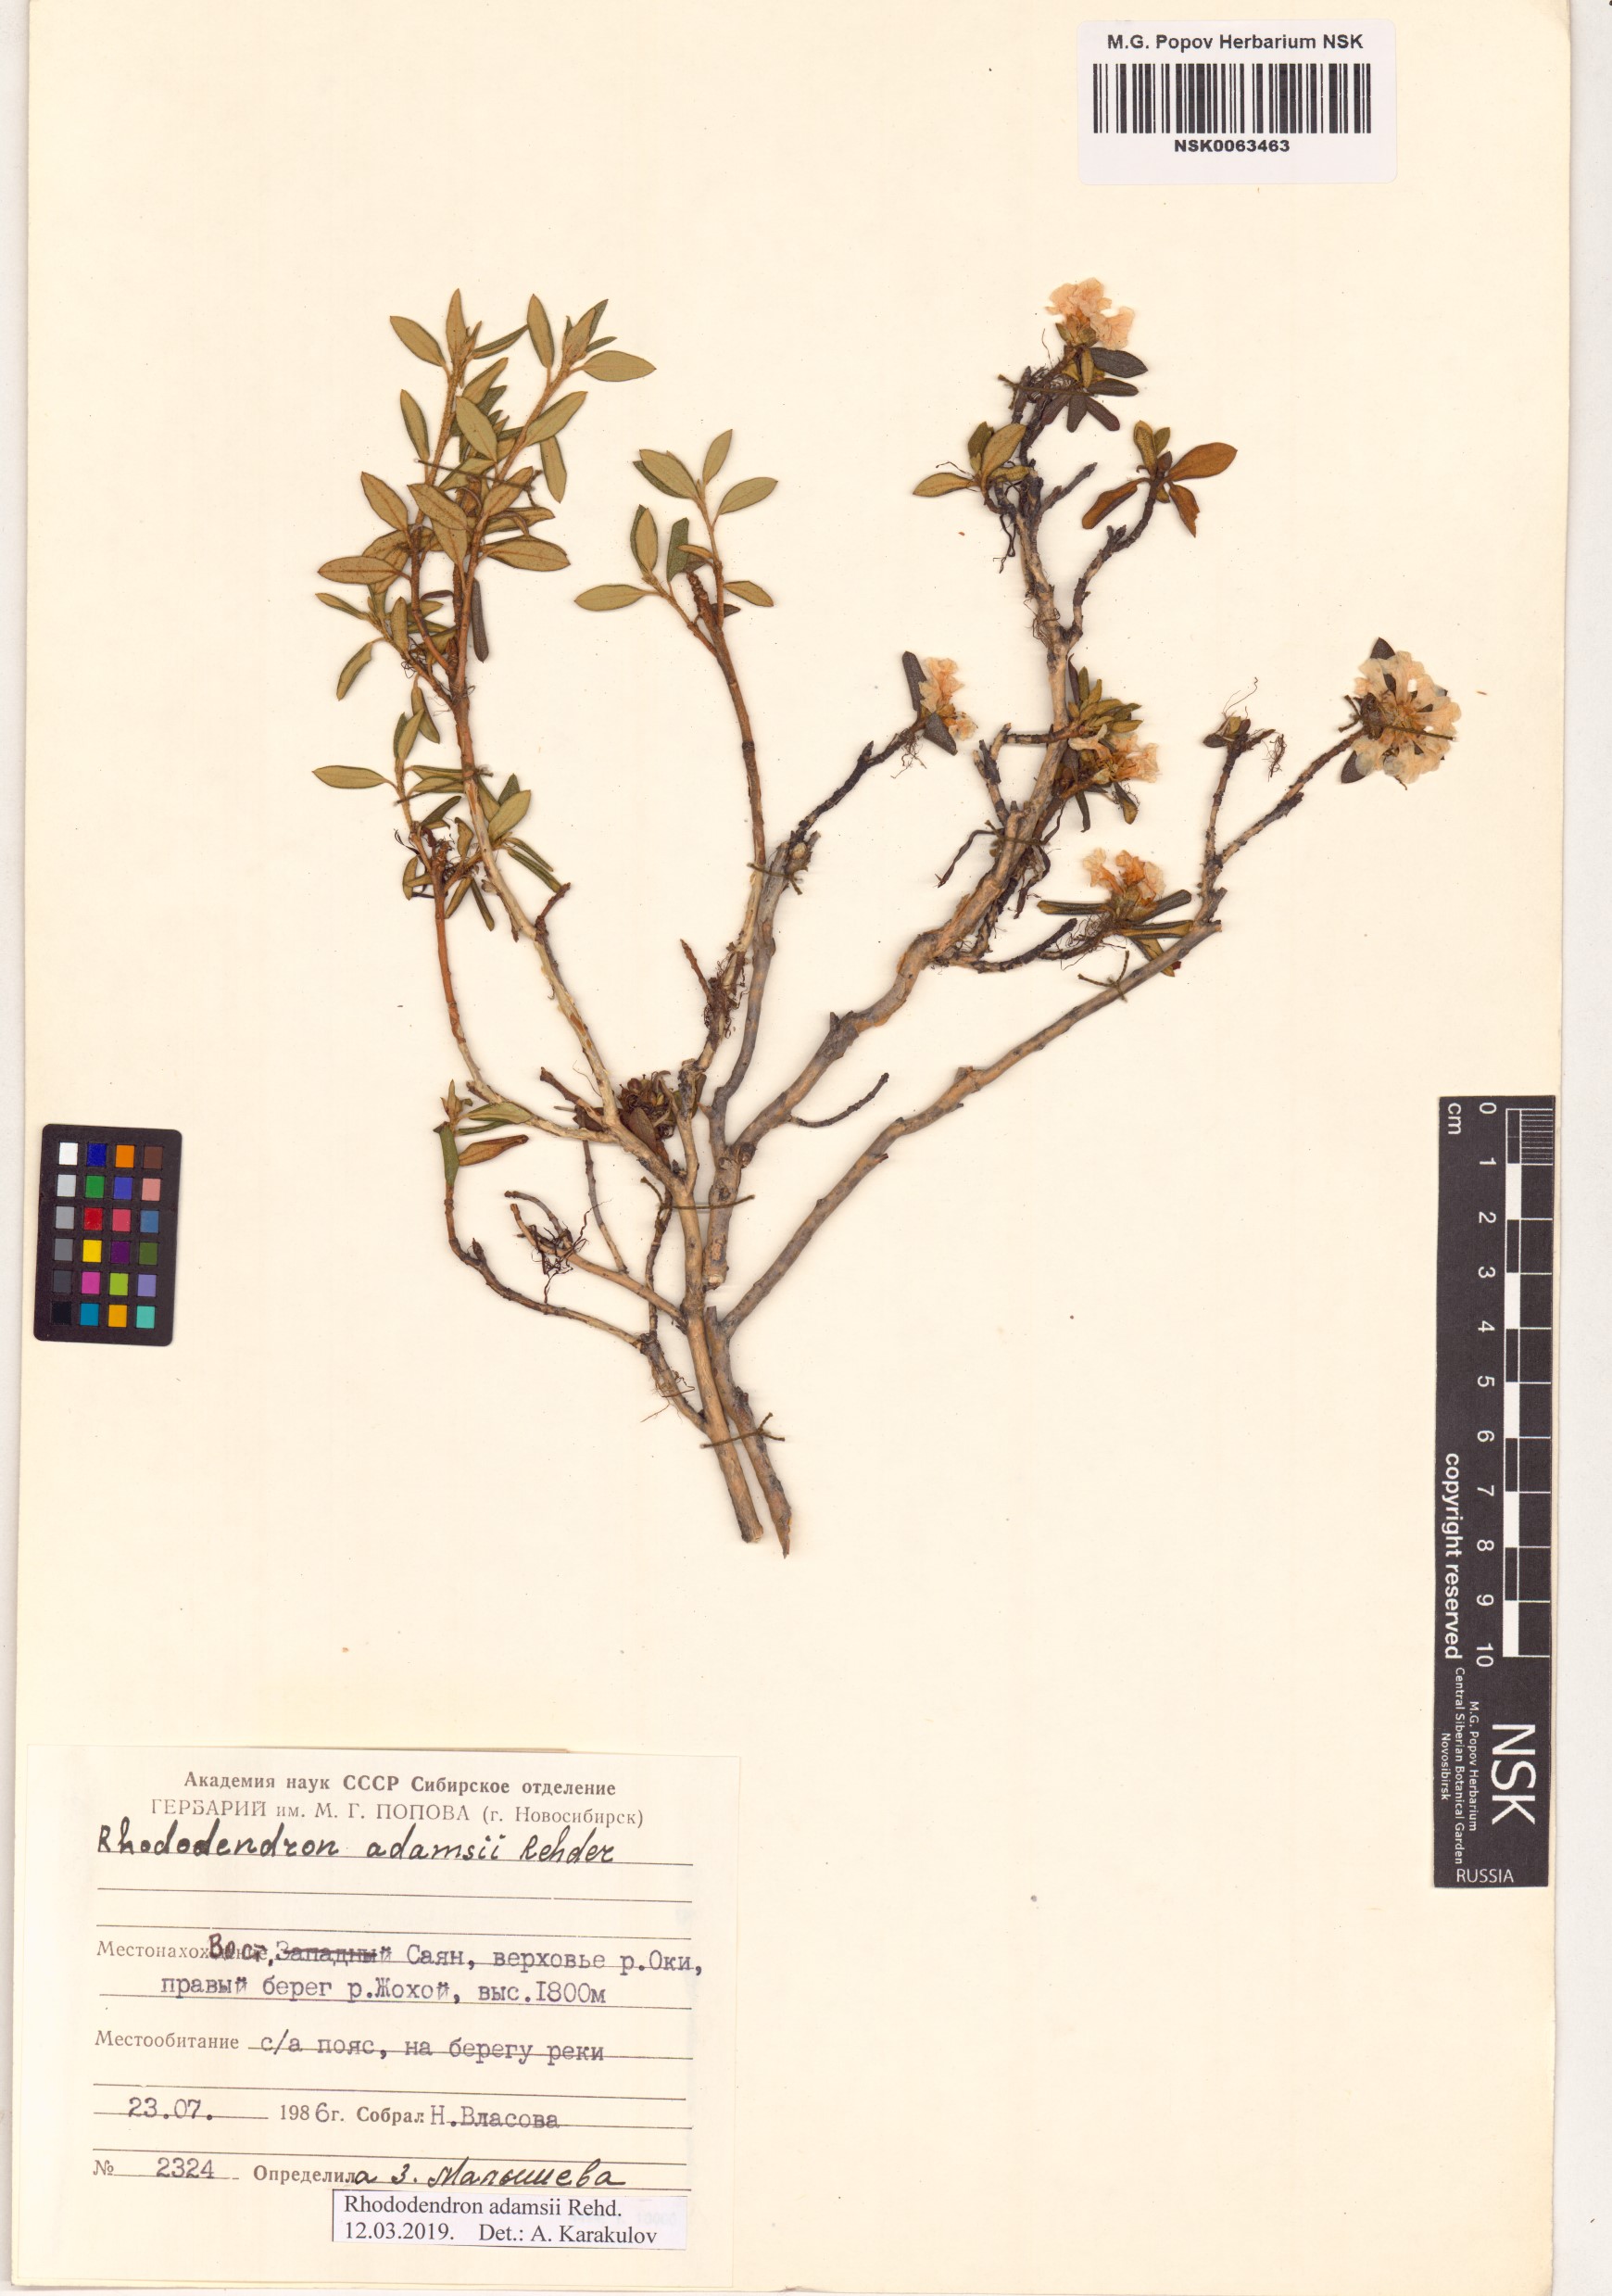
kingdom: Plantae
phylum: Tracheophyta
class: Magnoliopsida
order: Ericales
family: Ericaceae
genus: Rhododendron
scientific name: Rhododendron adamsii
